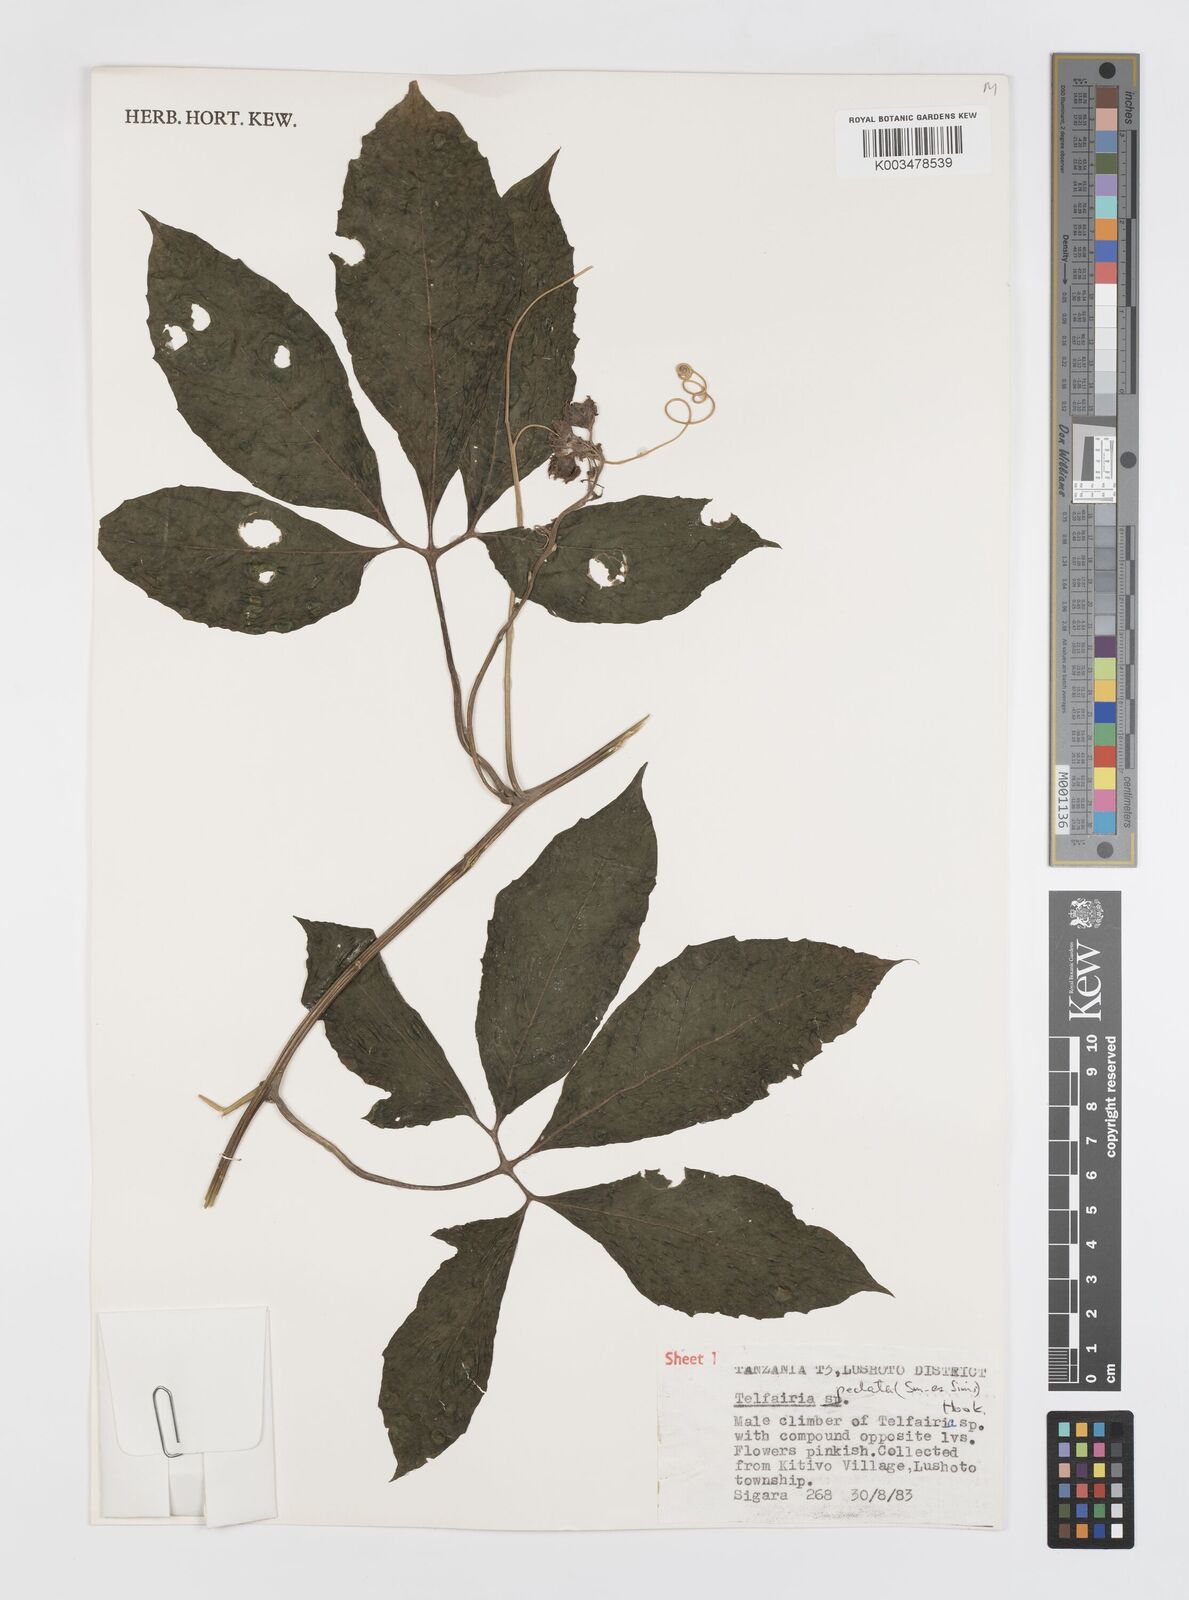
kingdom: Plantae
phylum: Tracheophyta
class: Magnoliopsida
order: Cucurbitales
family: Cucurbitaceae
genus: Telfairia
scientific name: Telfairia pedata
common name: Zanzibar oilvine
